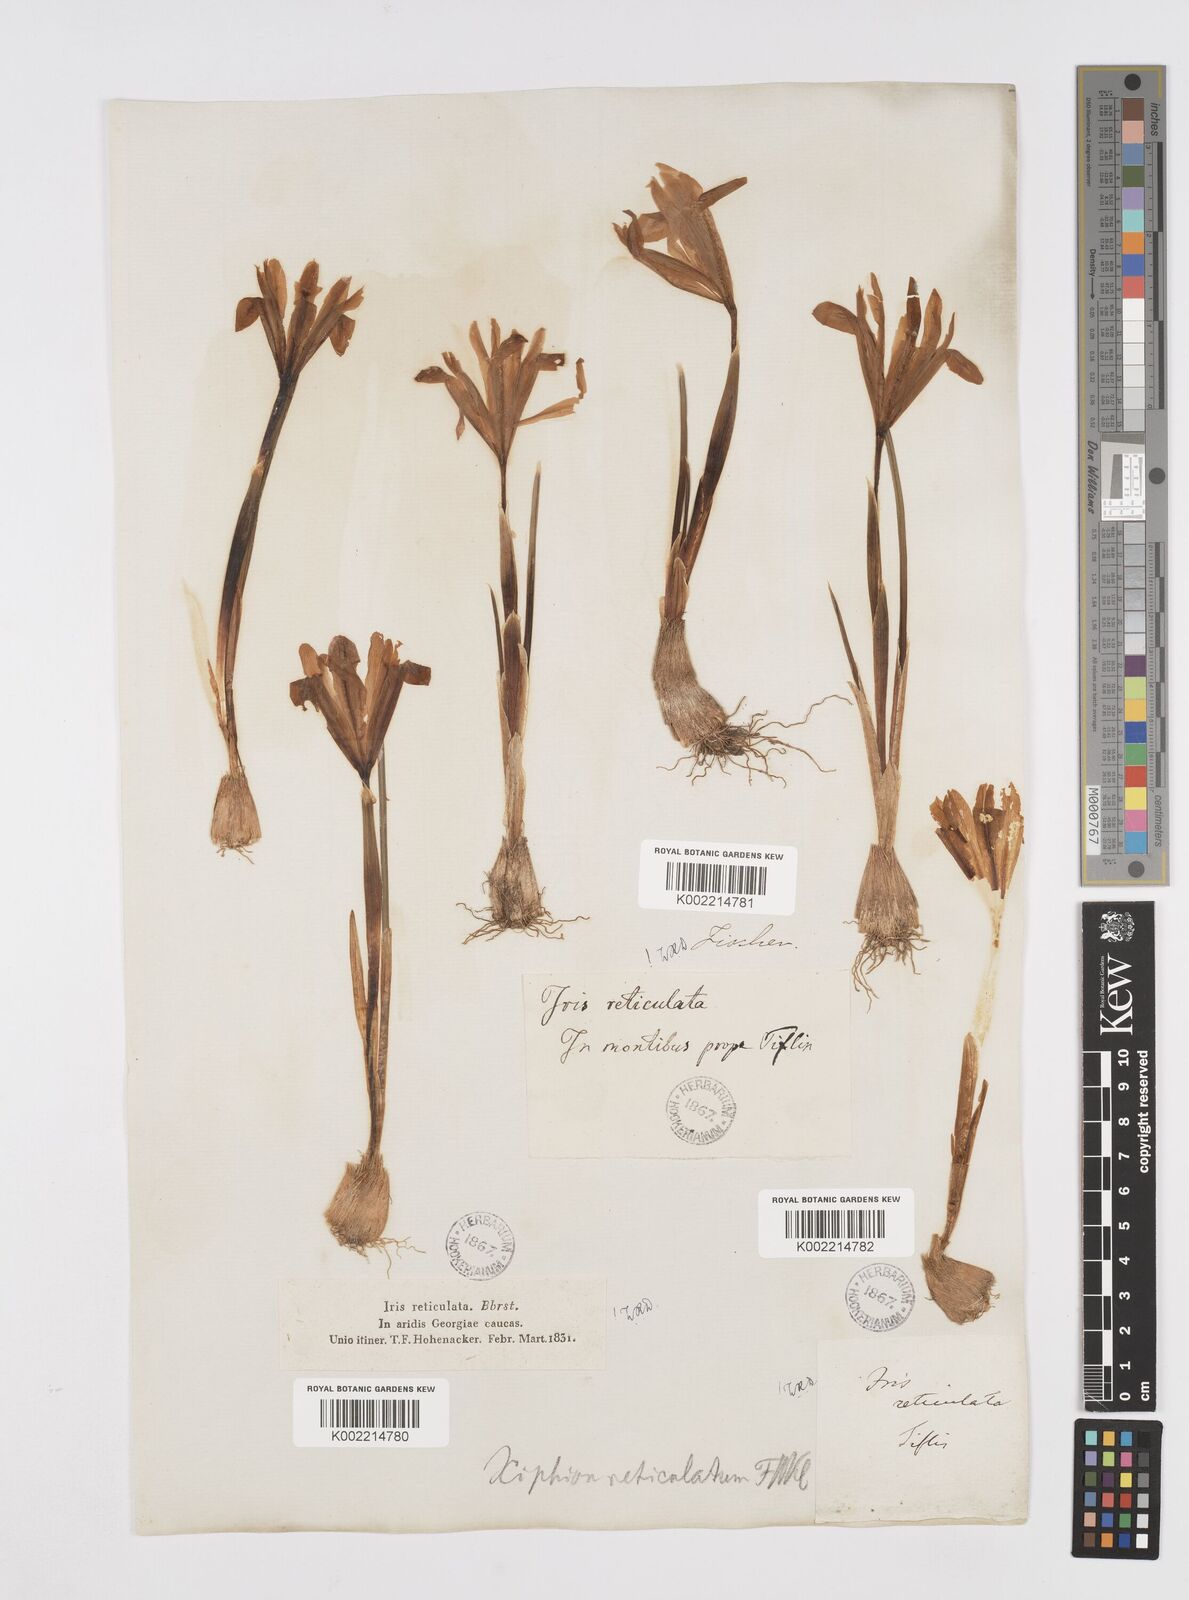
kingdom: Plantae
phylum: Tracheophyta
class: Liliopsida
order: Asparagales
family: Iridaceae
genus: Iris
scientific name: Iris reticulata
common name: Netted iris
